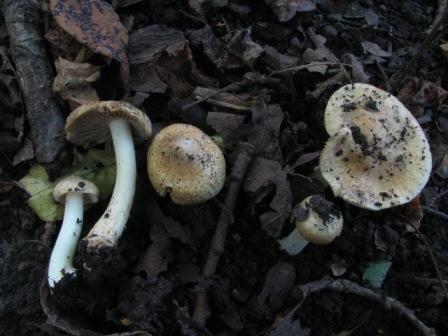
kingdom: Fungi
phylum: Basidiomycota
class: Agaricomycetes
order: Agaricales
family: Inocybaceae
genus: Inocybe
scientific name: Inocybe margaritispora
